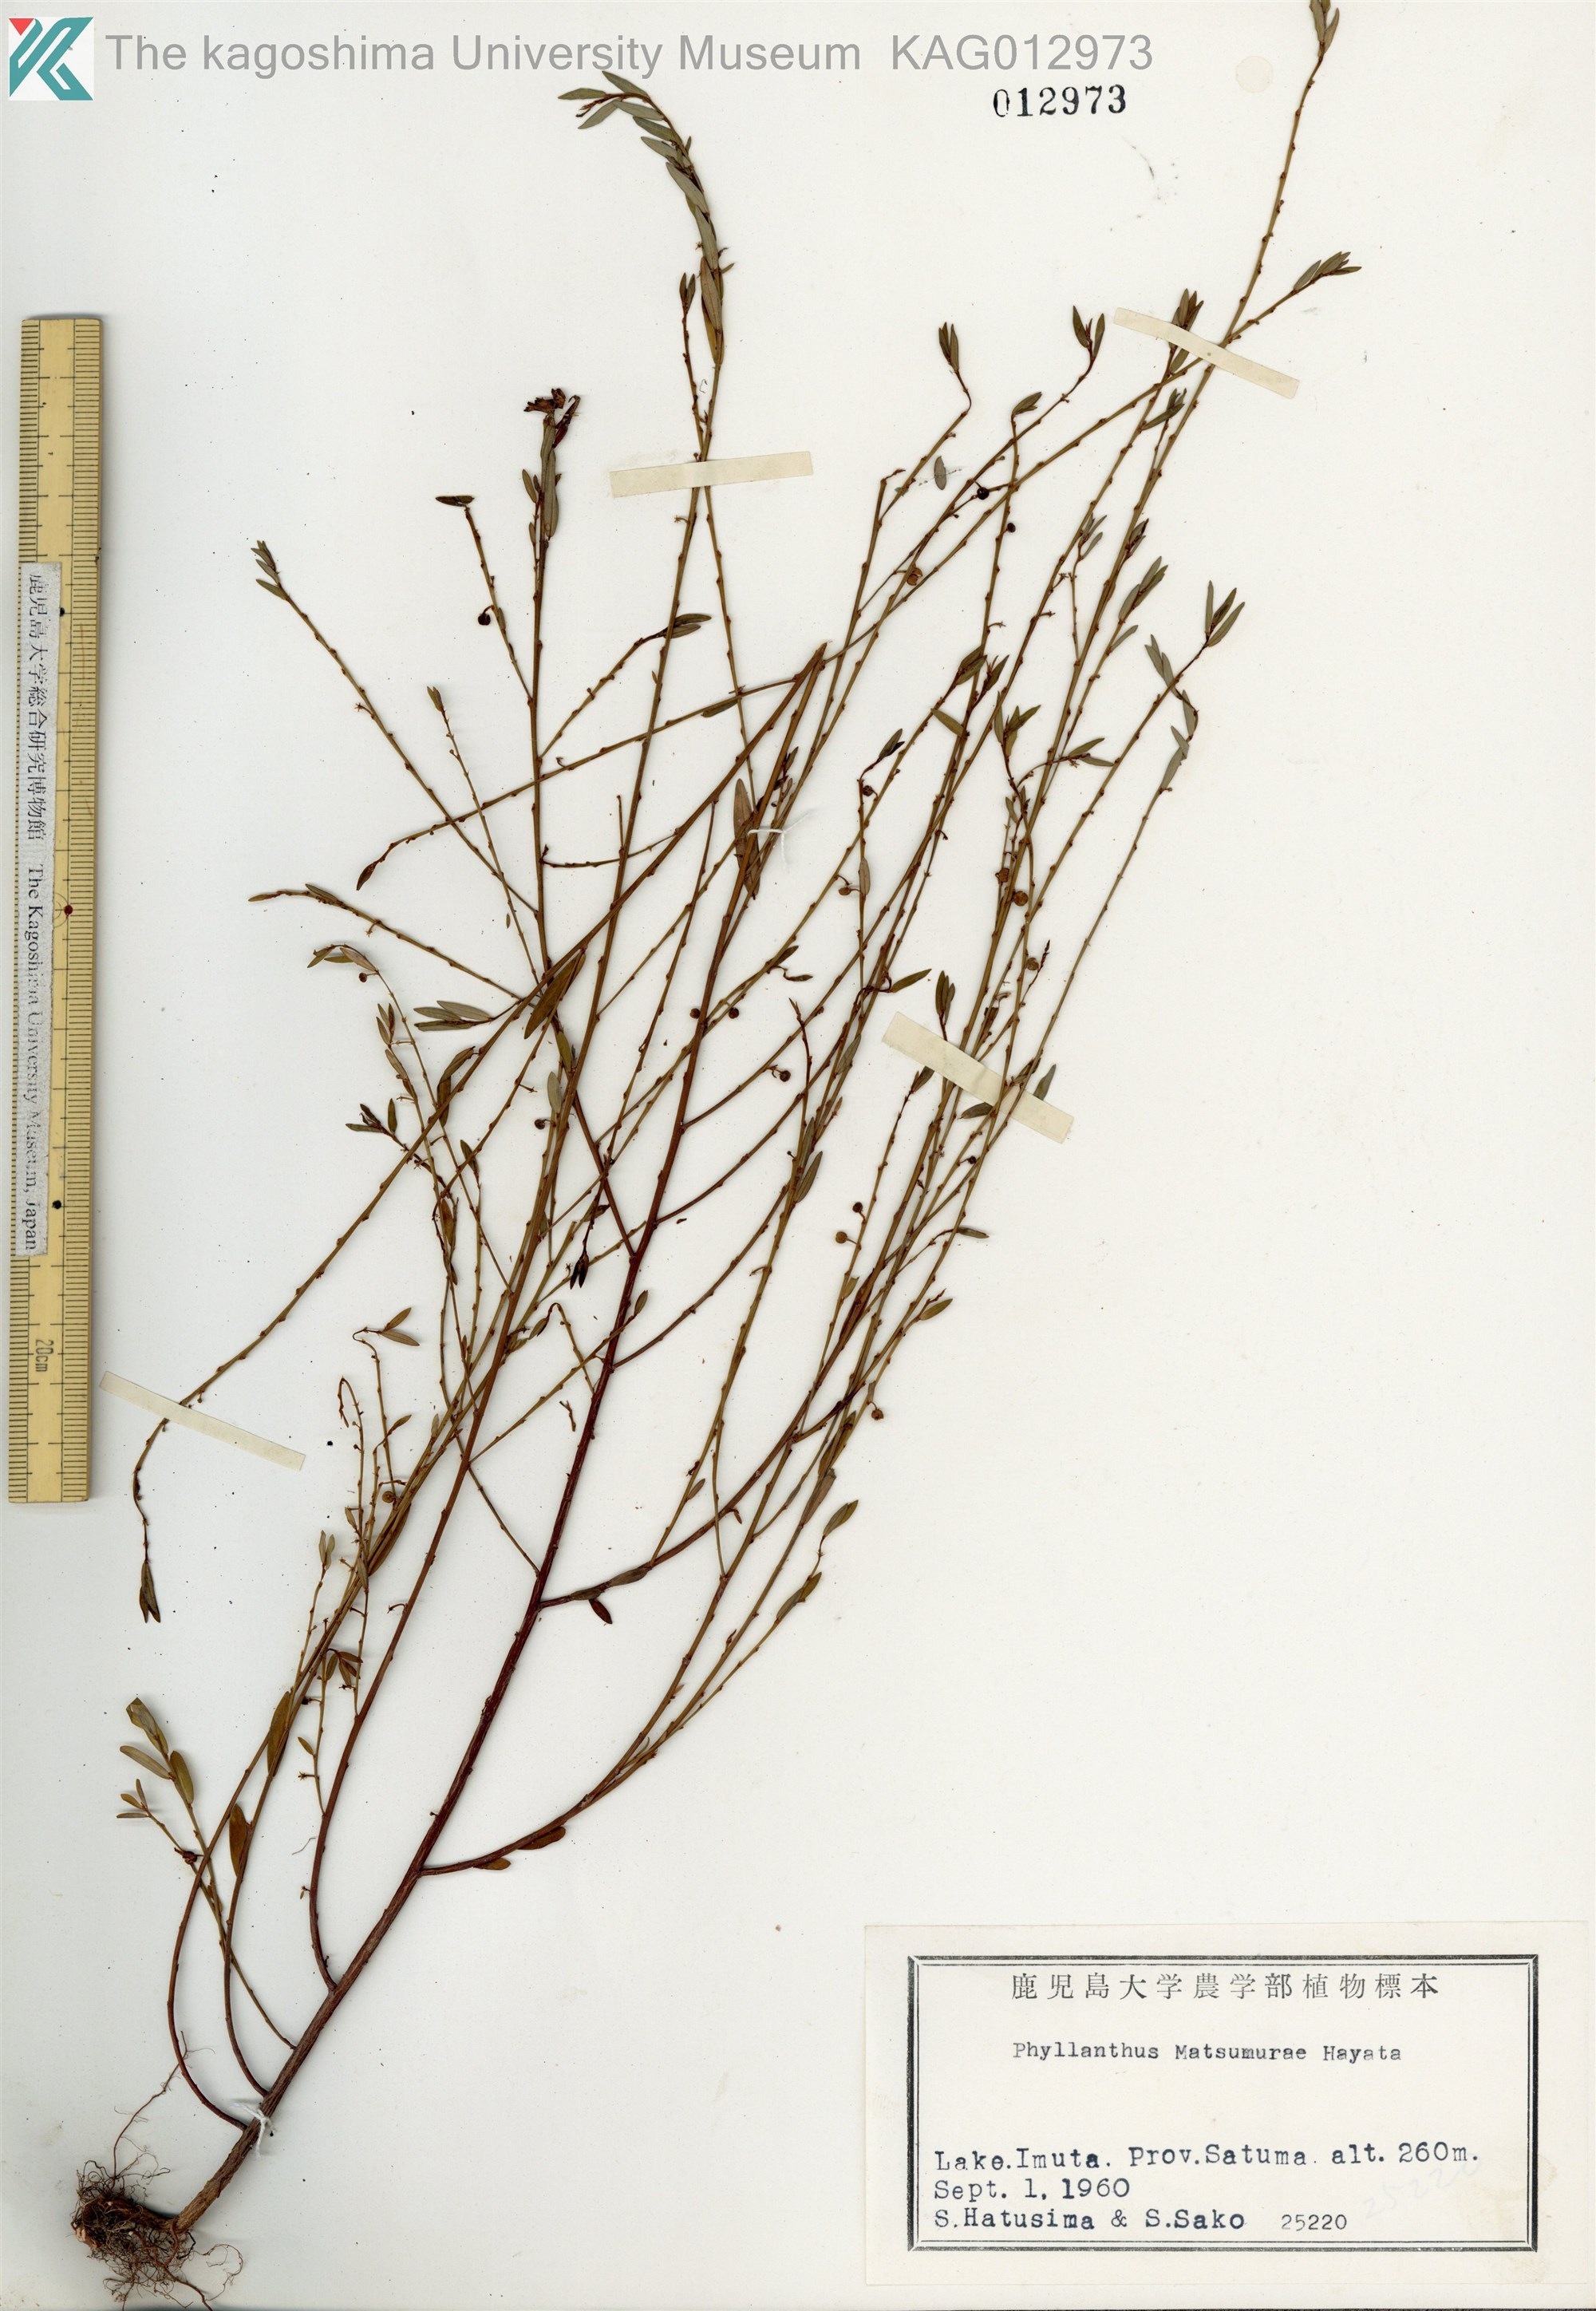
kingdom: Plantae
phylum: Tracheophyta
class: Magnoliopsida
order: Malpighiales
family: Phyllanthaceae
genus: Phyllanthus
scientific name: Phyllanthus ussuriensis
